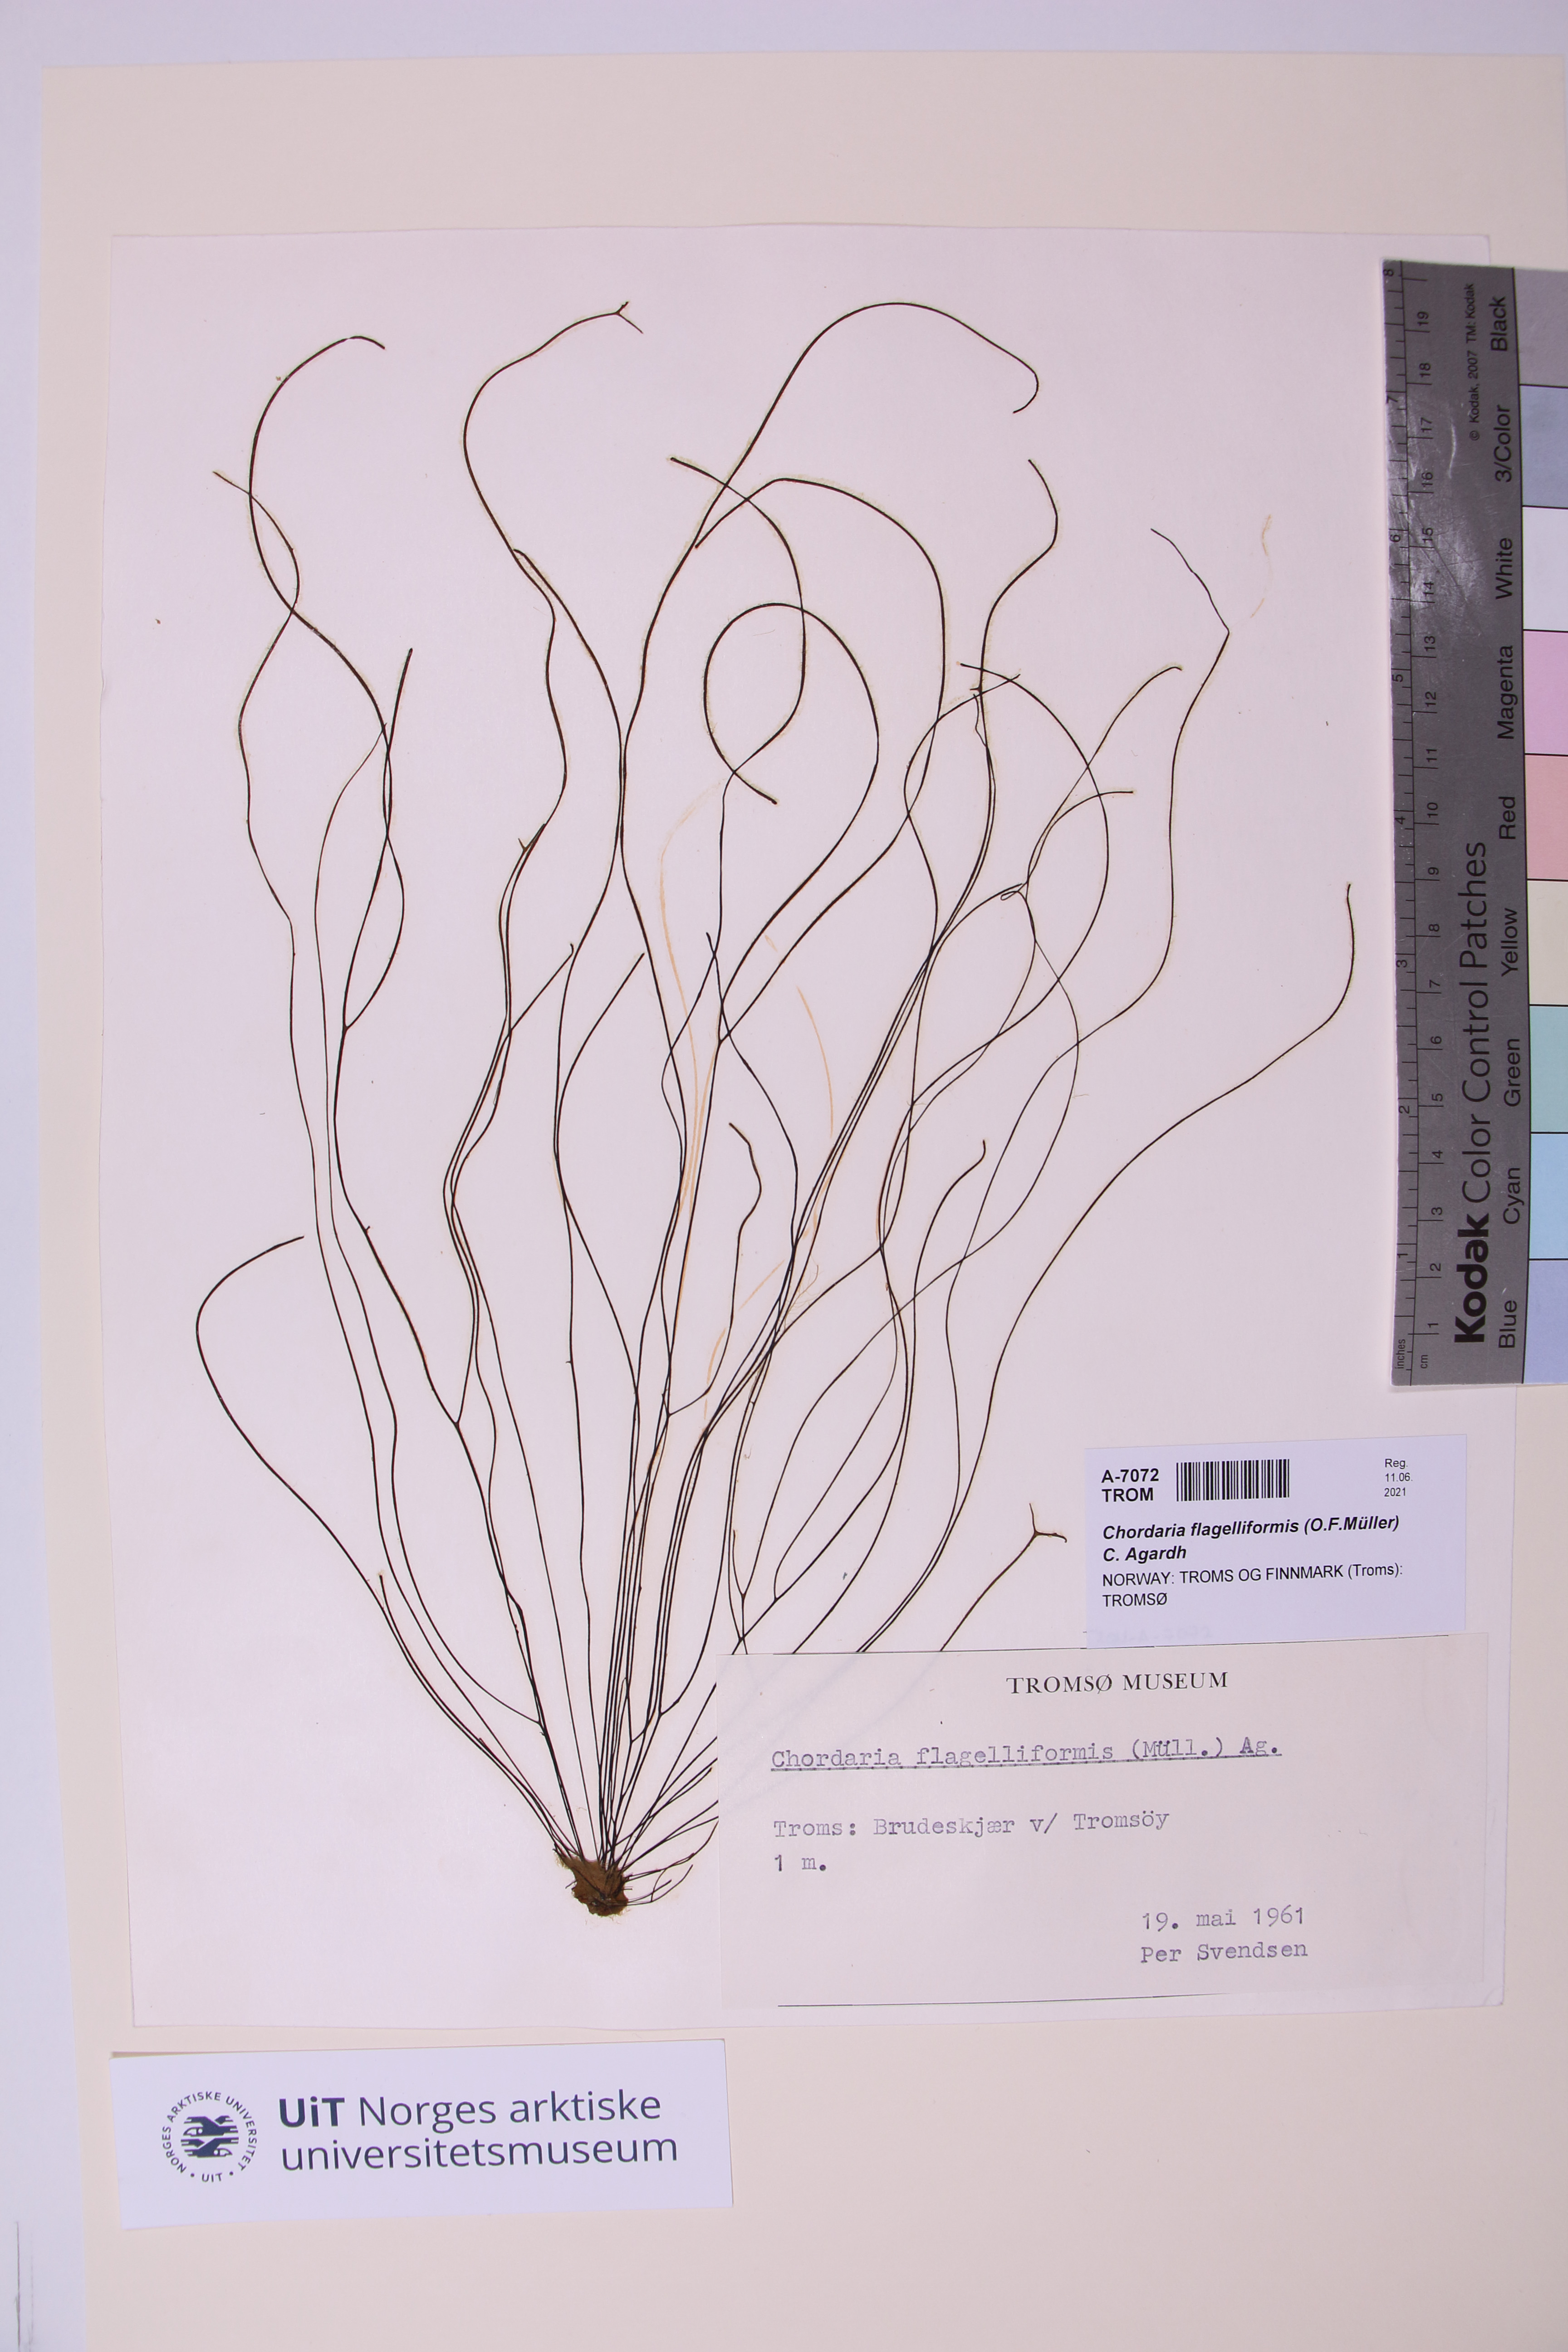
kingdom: Chromista
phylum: Ochrophyta
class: Phaeophyceae
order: Ectocarpales
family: Chordariaceae
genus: Chordaria
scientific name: Chordaria flagelliformis
